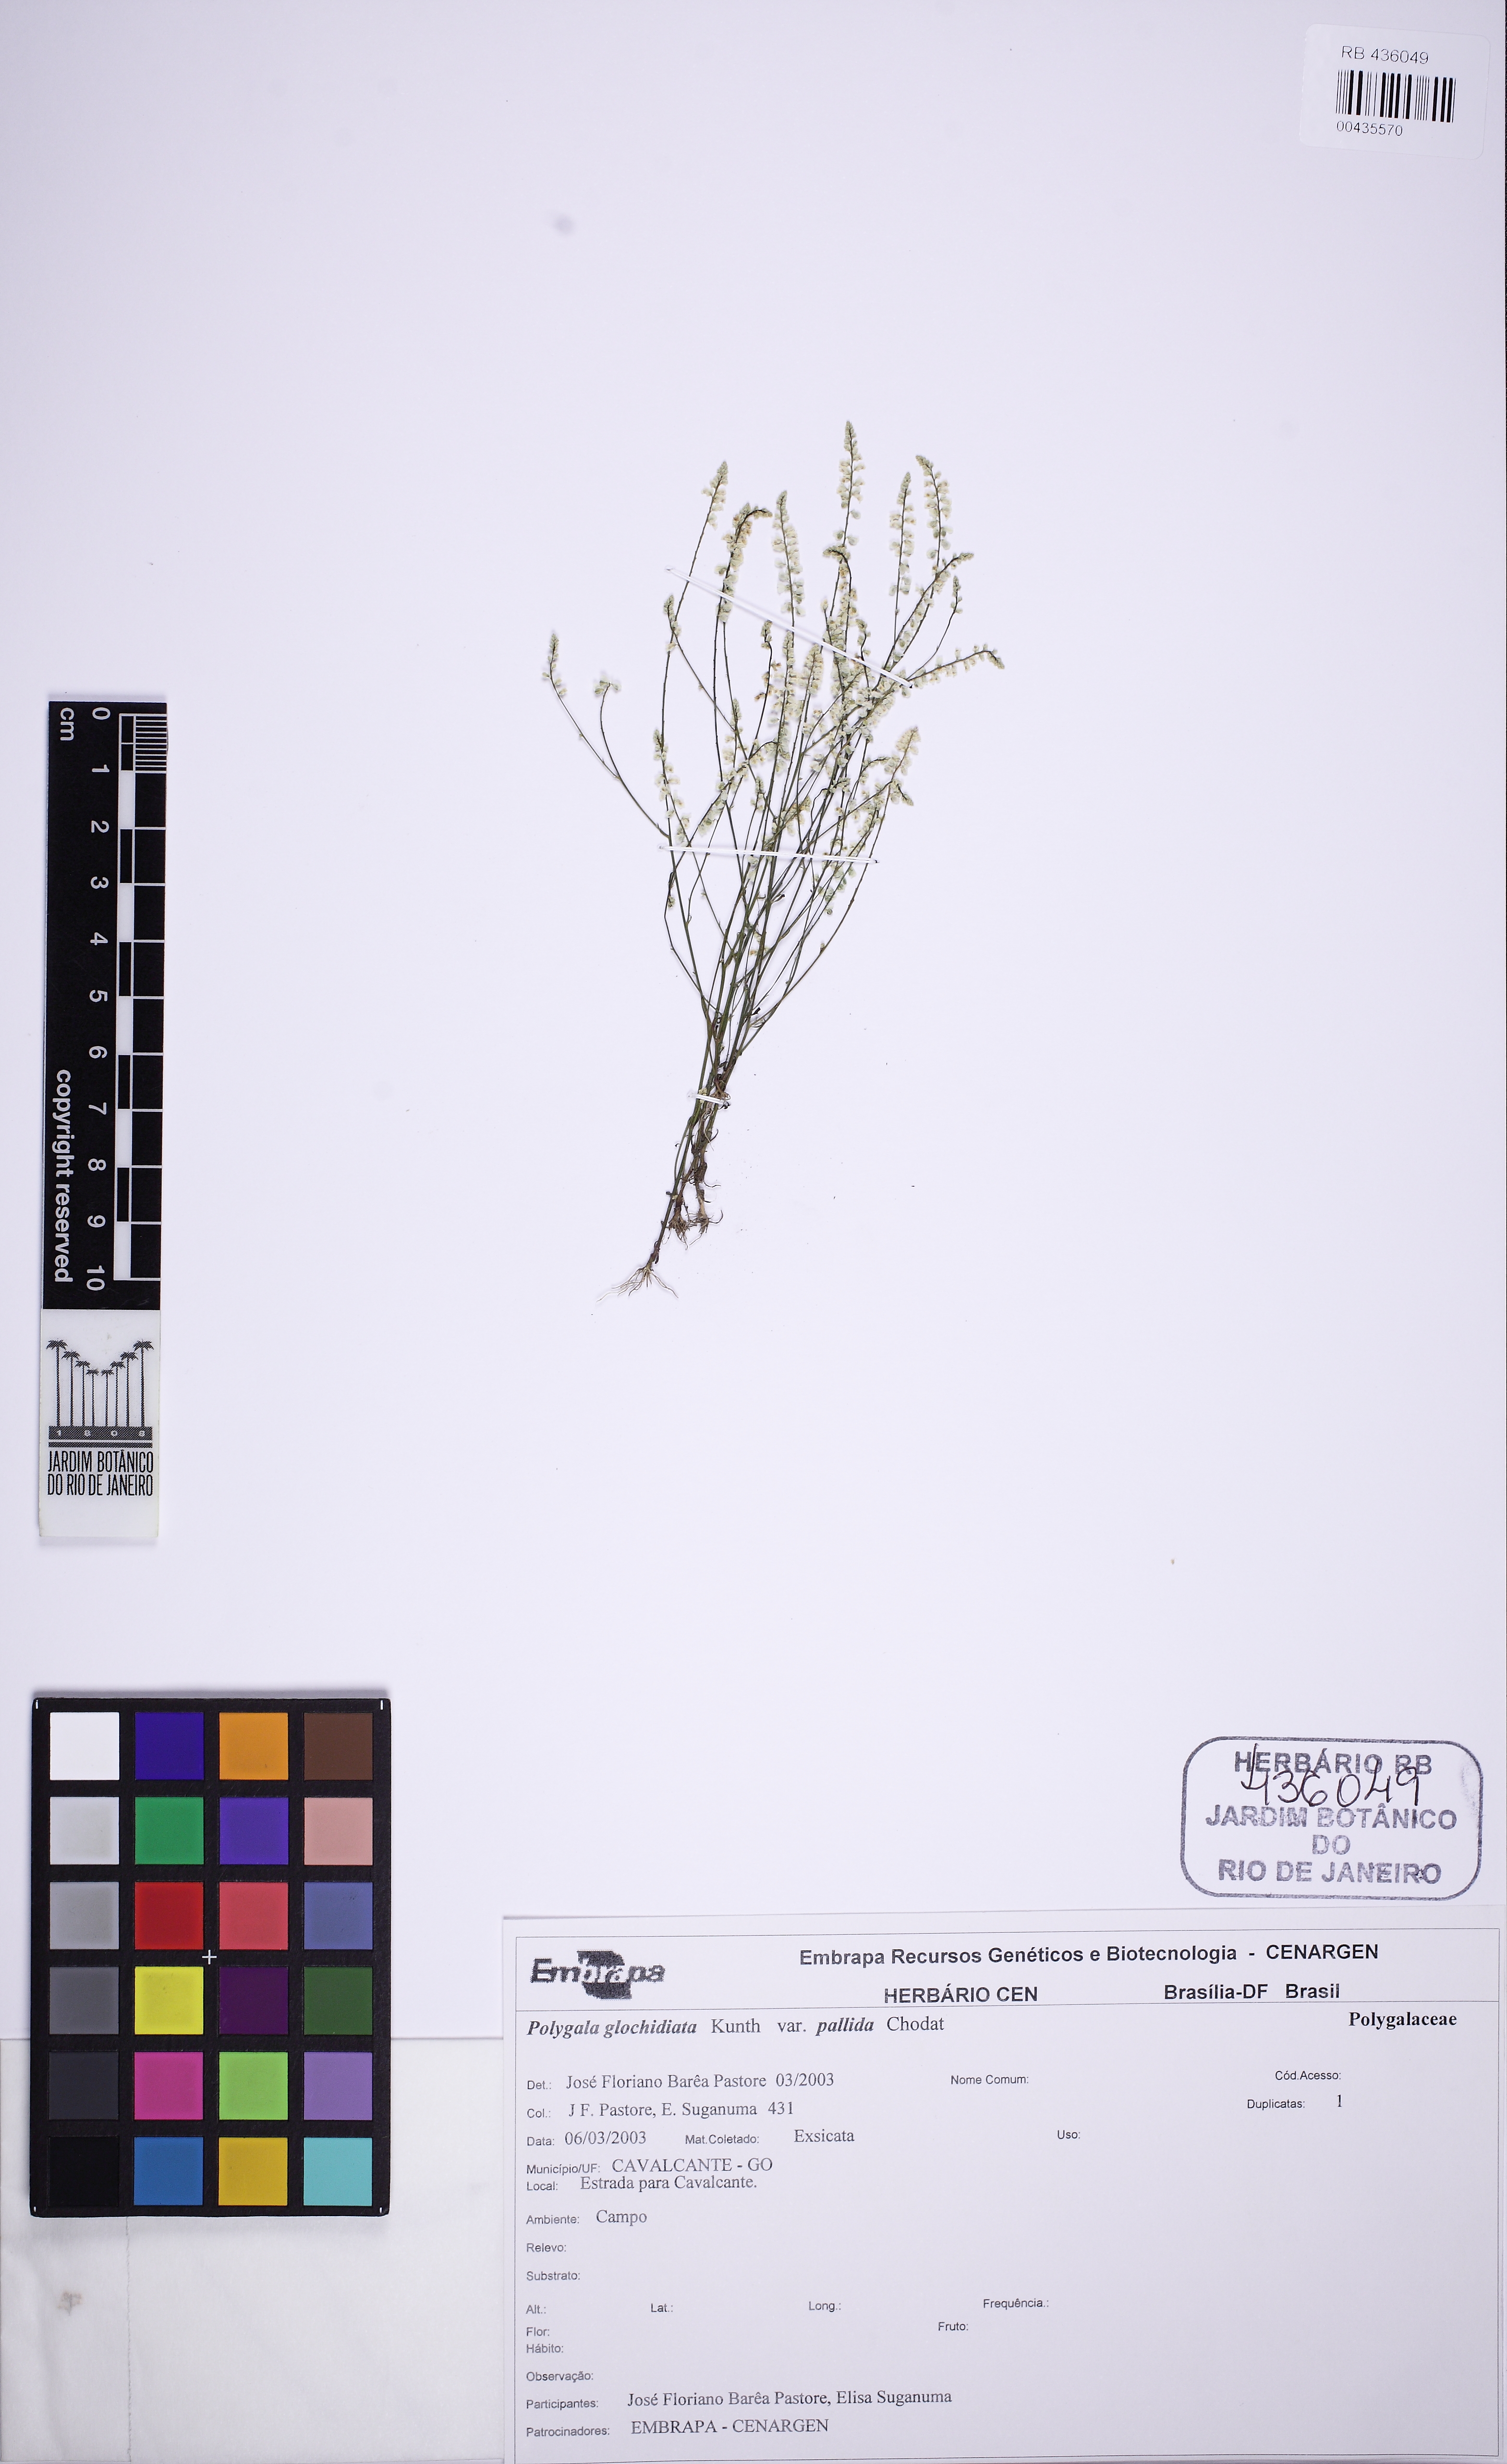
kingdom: Plantae
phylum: Tracheophyta
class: Magnoliopsida
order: Fabales
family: Polygalaceae
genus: Polygala
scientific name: Polygala glochidiata
